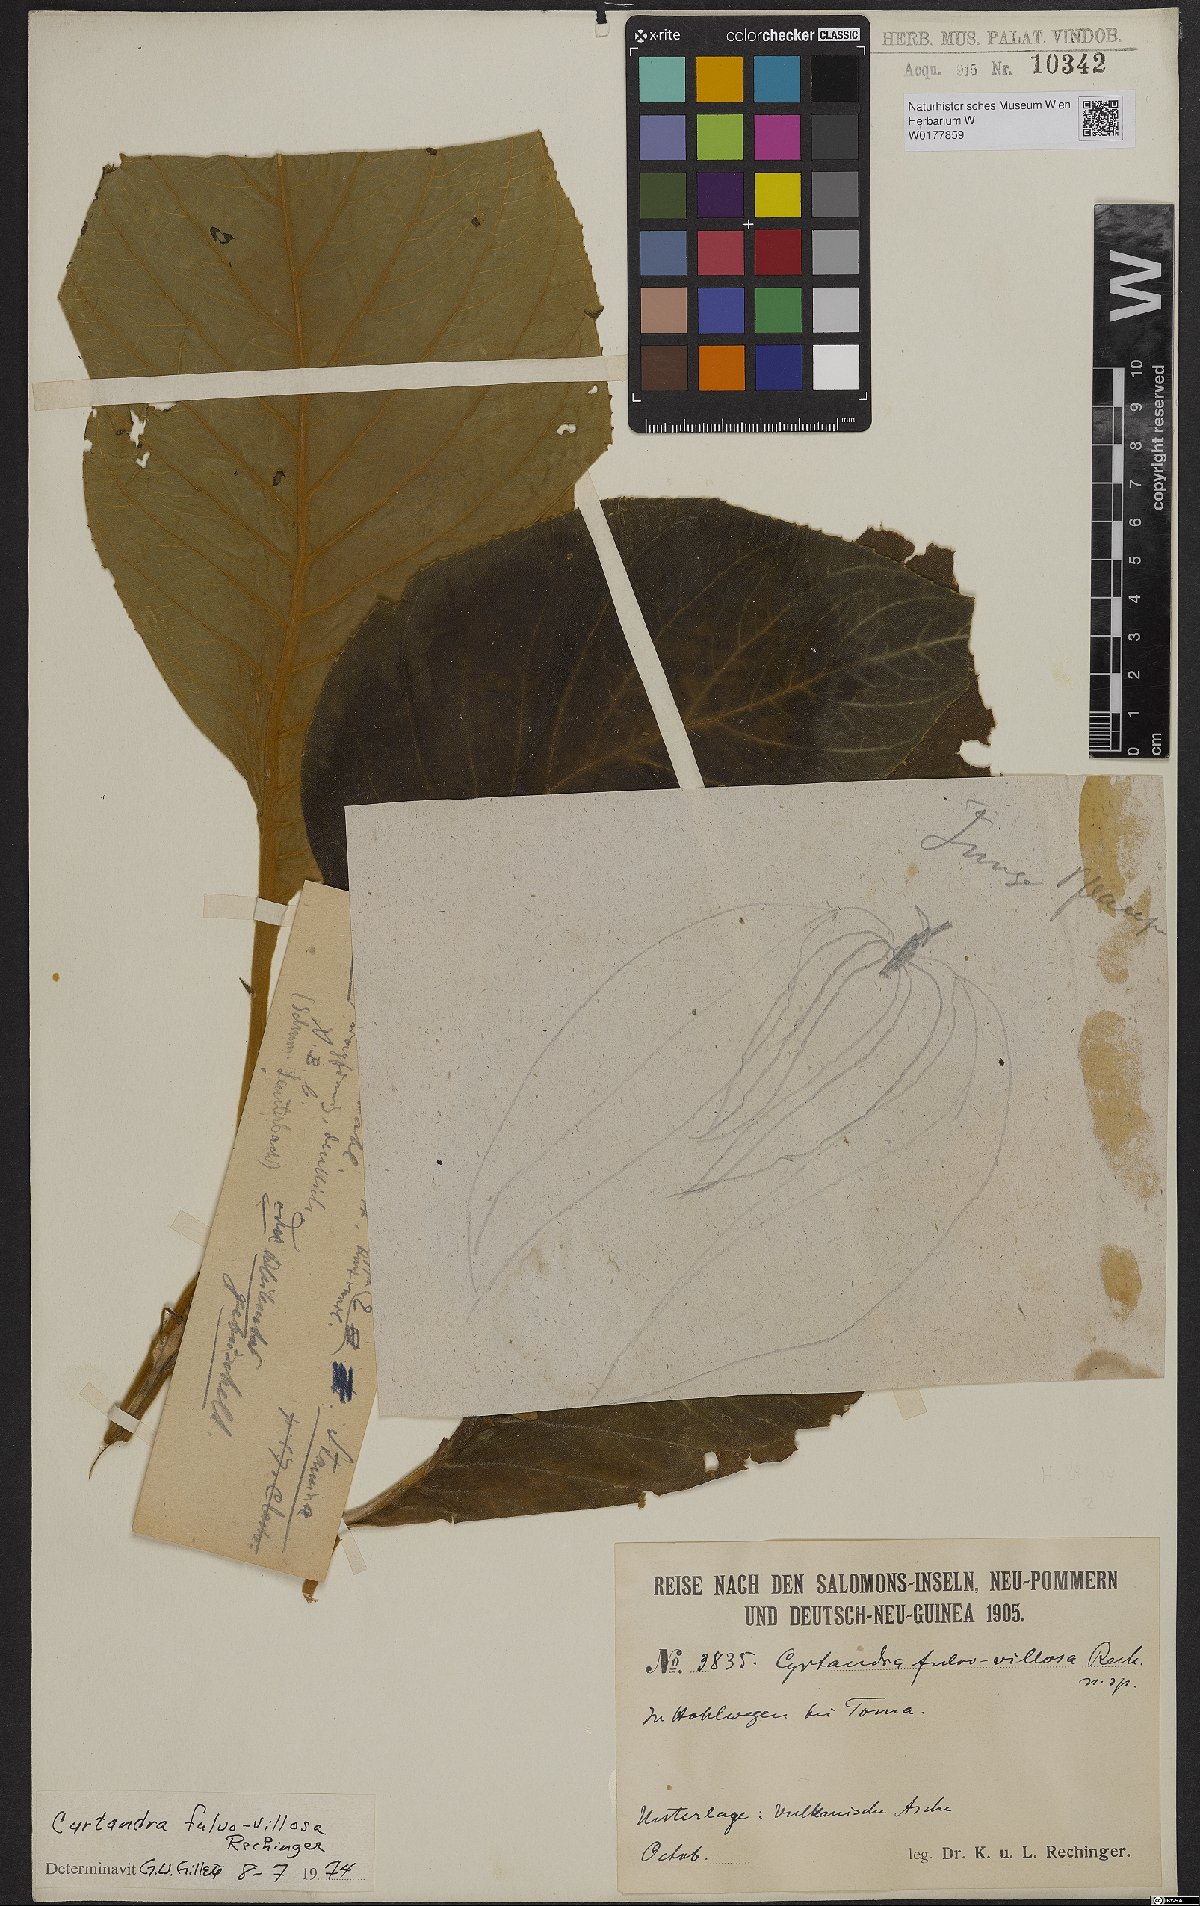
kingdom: Plantae
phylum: Tracheophyta
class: Magnoliopsida
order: Lamiales
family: Gesneriaceae
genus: Cyrtandra
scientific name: Cyrtandra fulvovillosa
